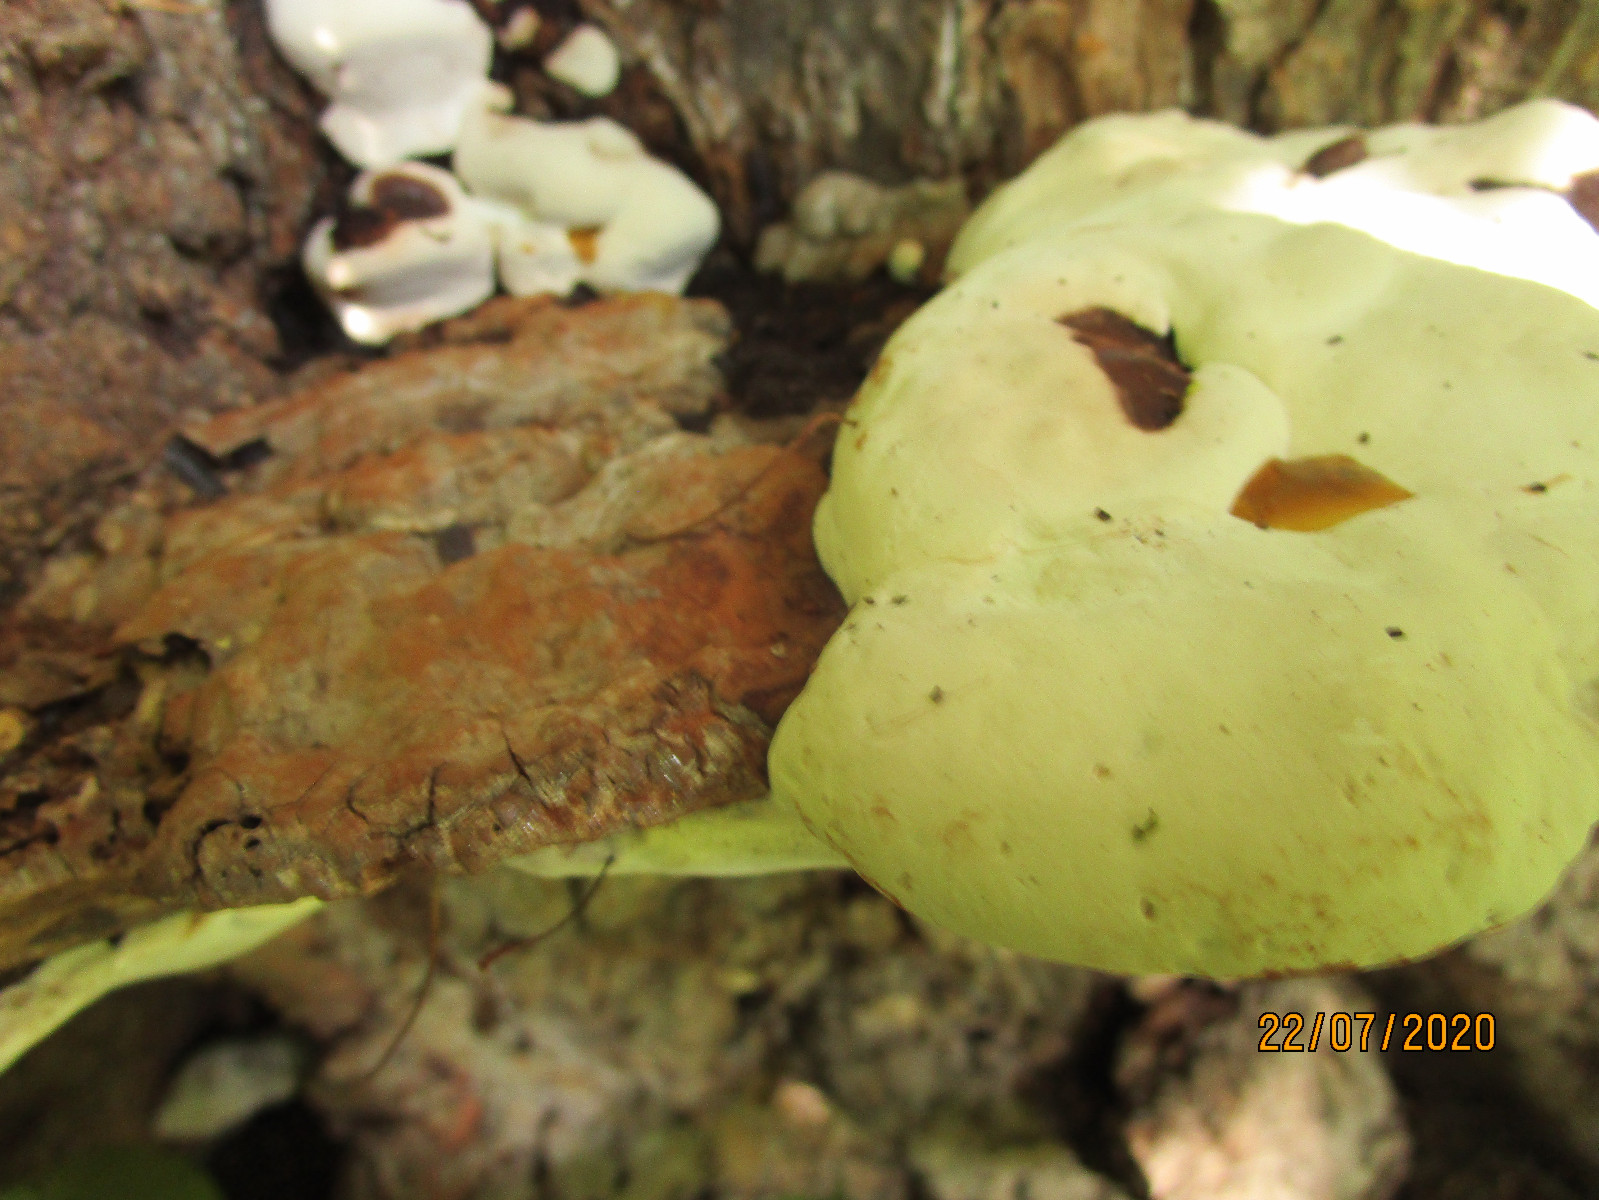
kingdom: Fungi
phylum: Basidiomycota
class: Agaricomycetes
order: Polyporales
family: Polyporaceae
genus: Ganoderma
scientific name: Ganoderma adspersum
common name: grov lakporesvamp
